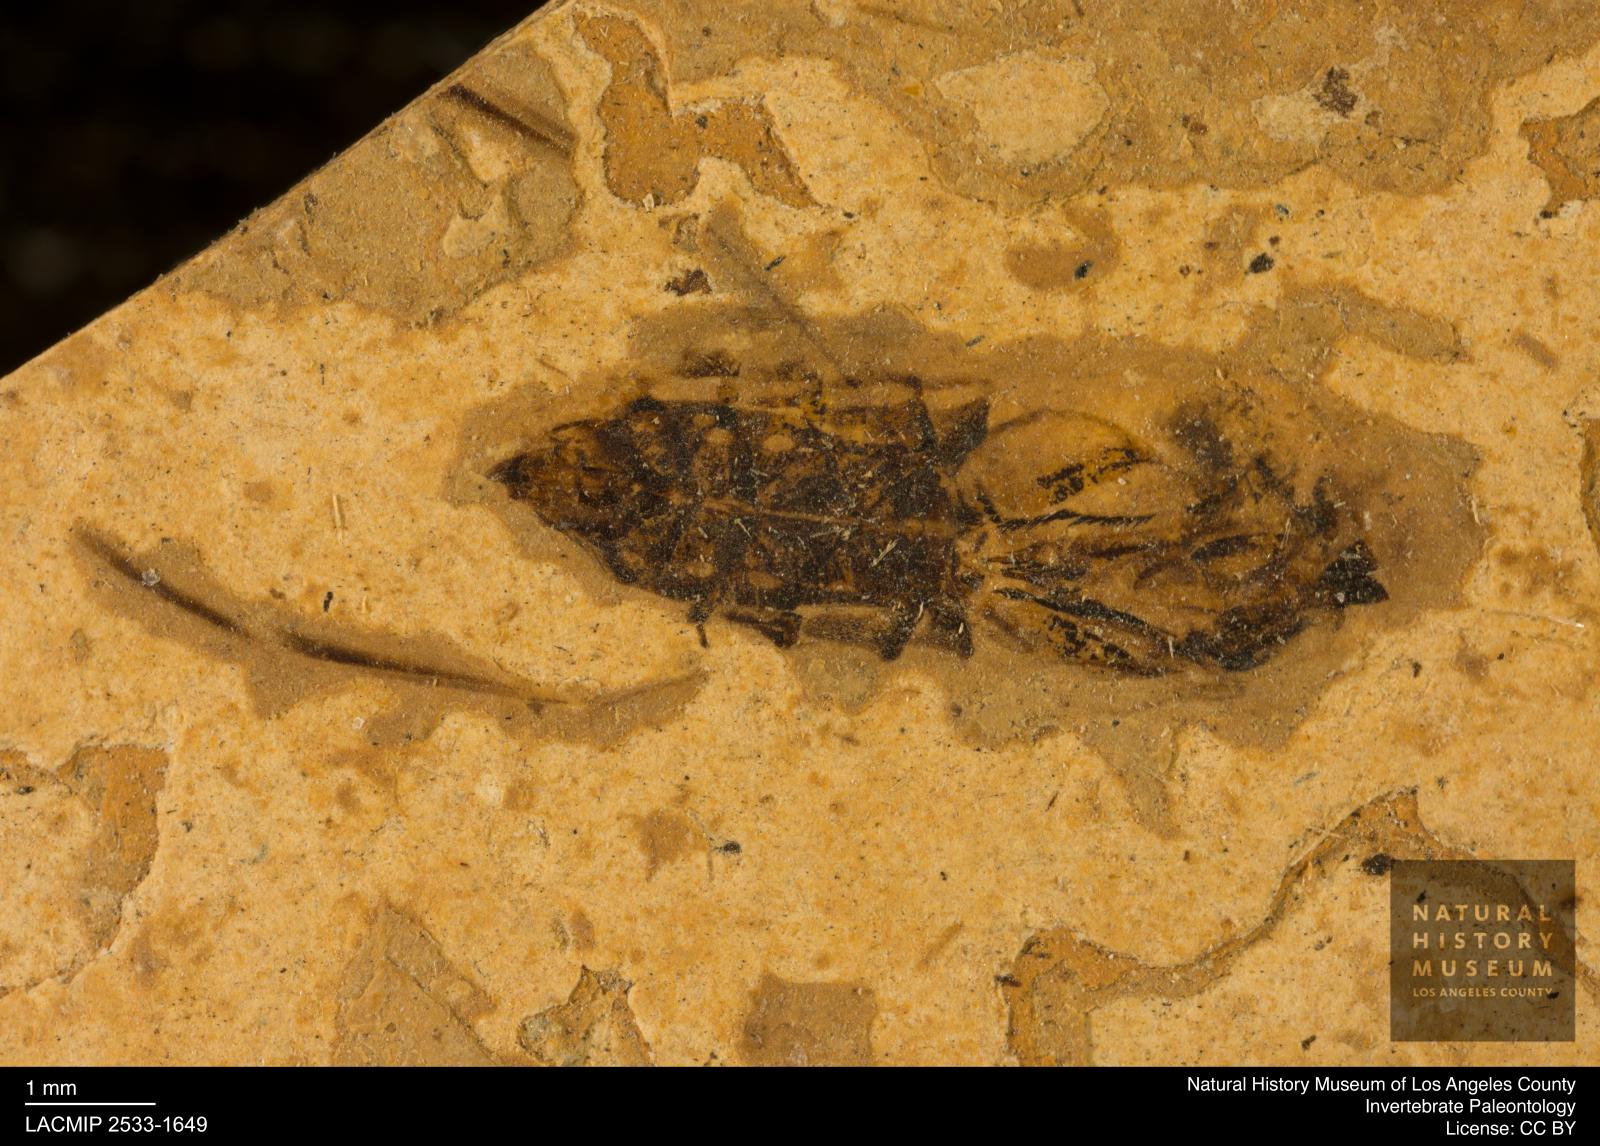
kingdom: Animalia
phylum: Arthropoda
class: Insecta
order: Hemiptera
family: Notonectidae
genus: Notonecta
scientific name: Notonecta
